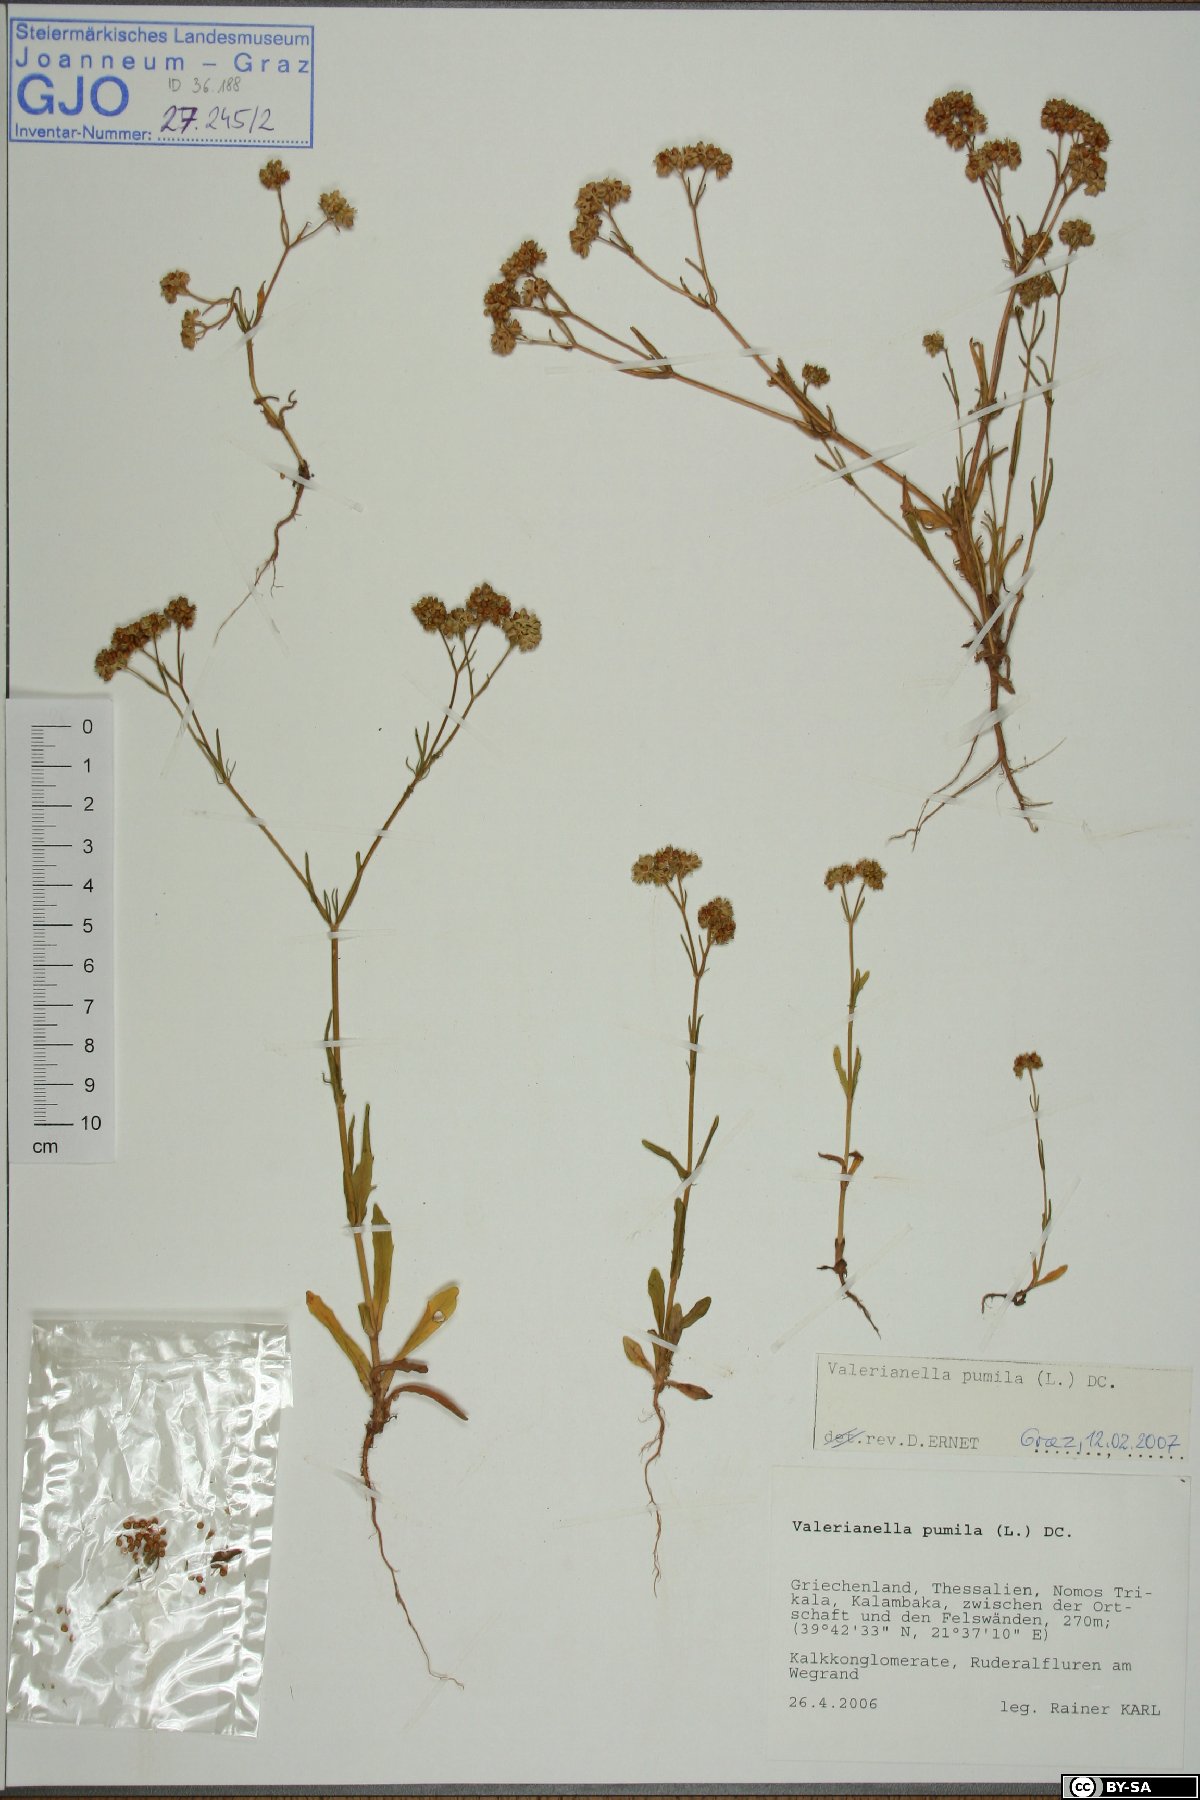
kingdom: Plantae
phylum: Tracheophyta
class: Magnoliopsida
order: Dipsacales
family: Caprifoliaceae
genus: Valerianella
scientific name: Valerianella pumila
